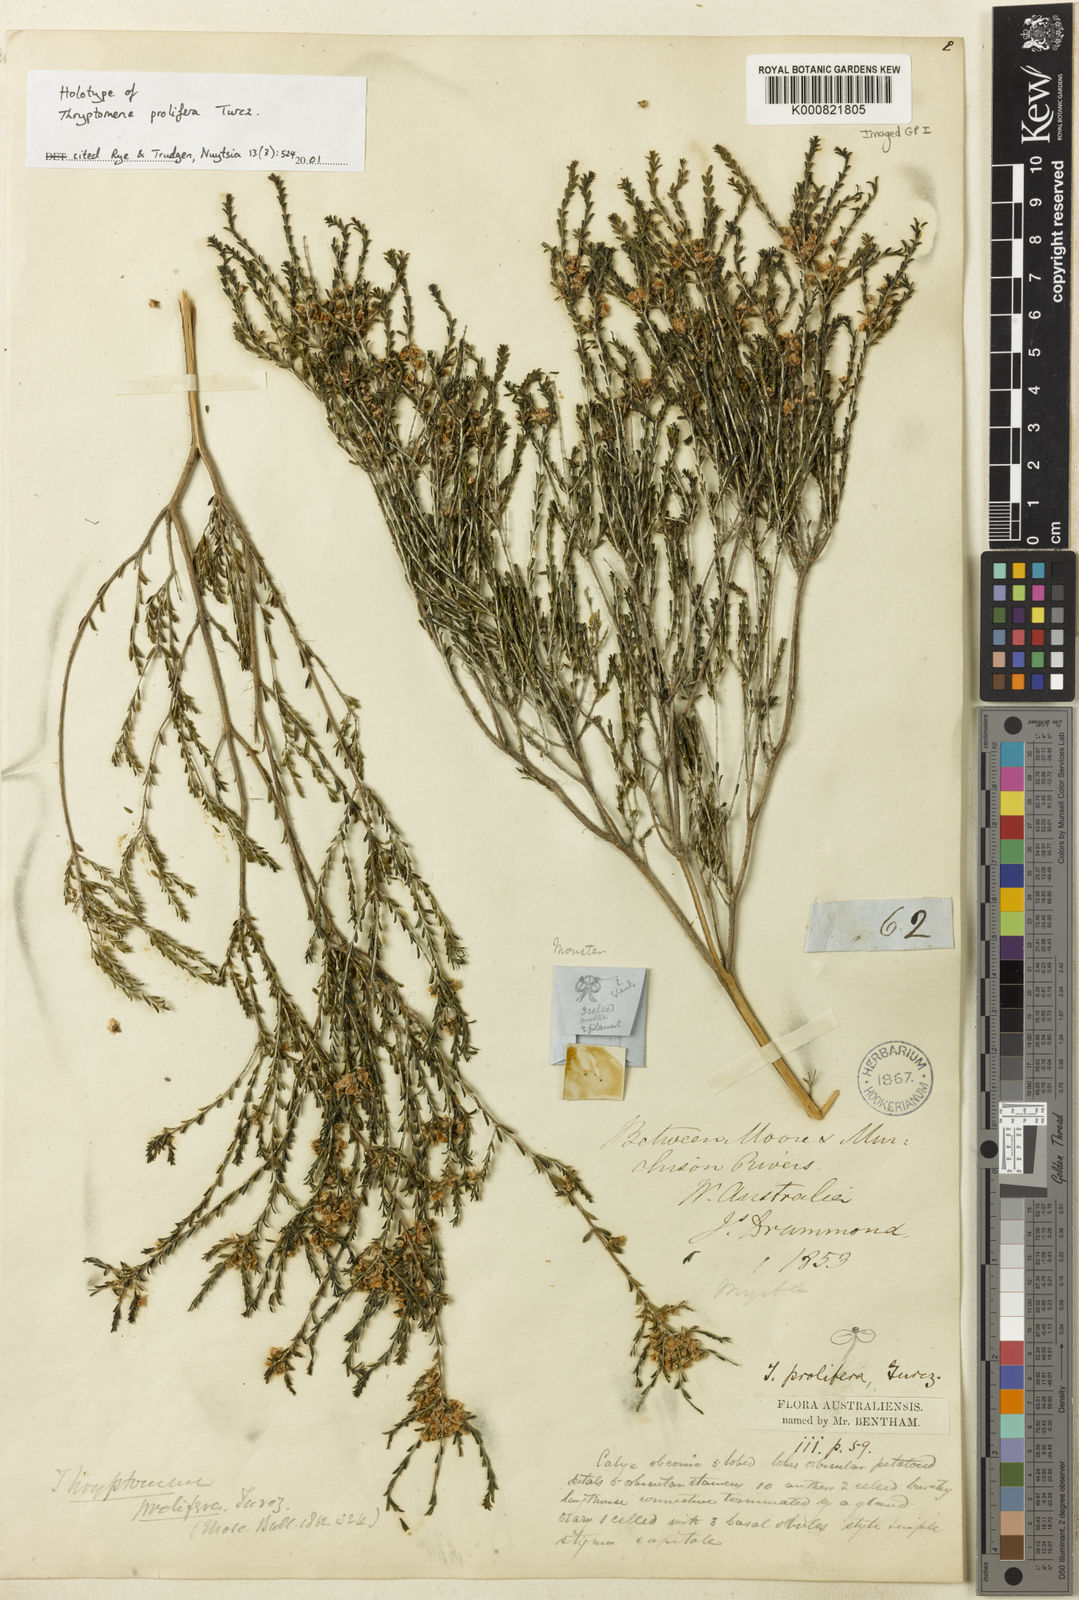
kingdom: Plantae
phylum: Tracheophyta
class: Magnoliopsida
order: Myrtales
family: Myrtaceae
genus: Thryptomene
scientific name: Thryptomene mucronulata
